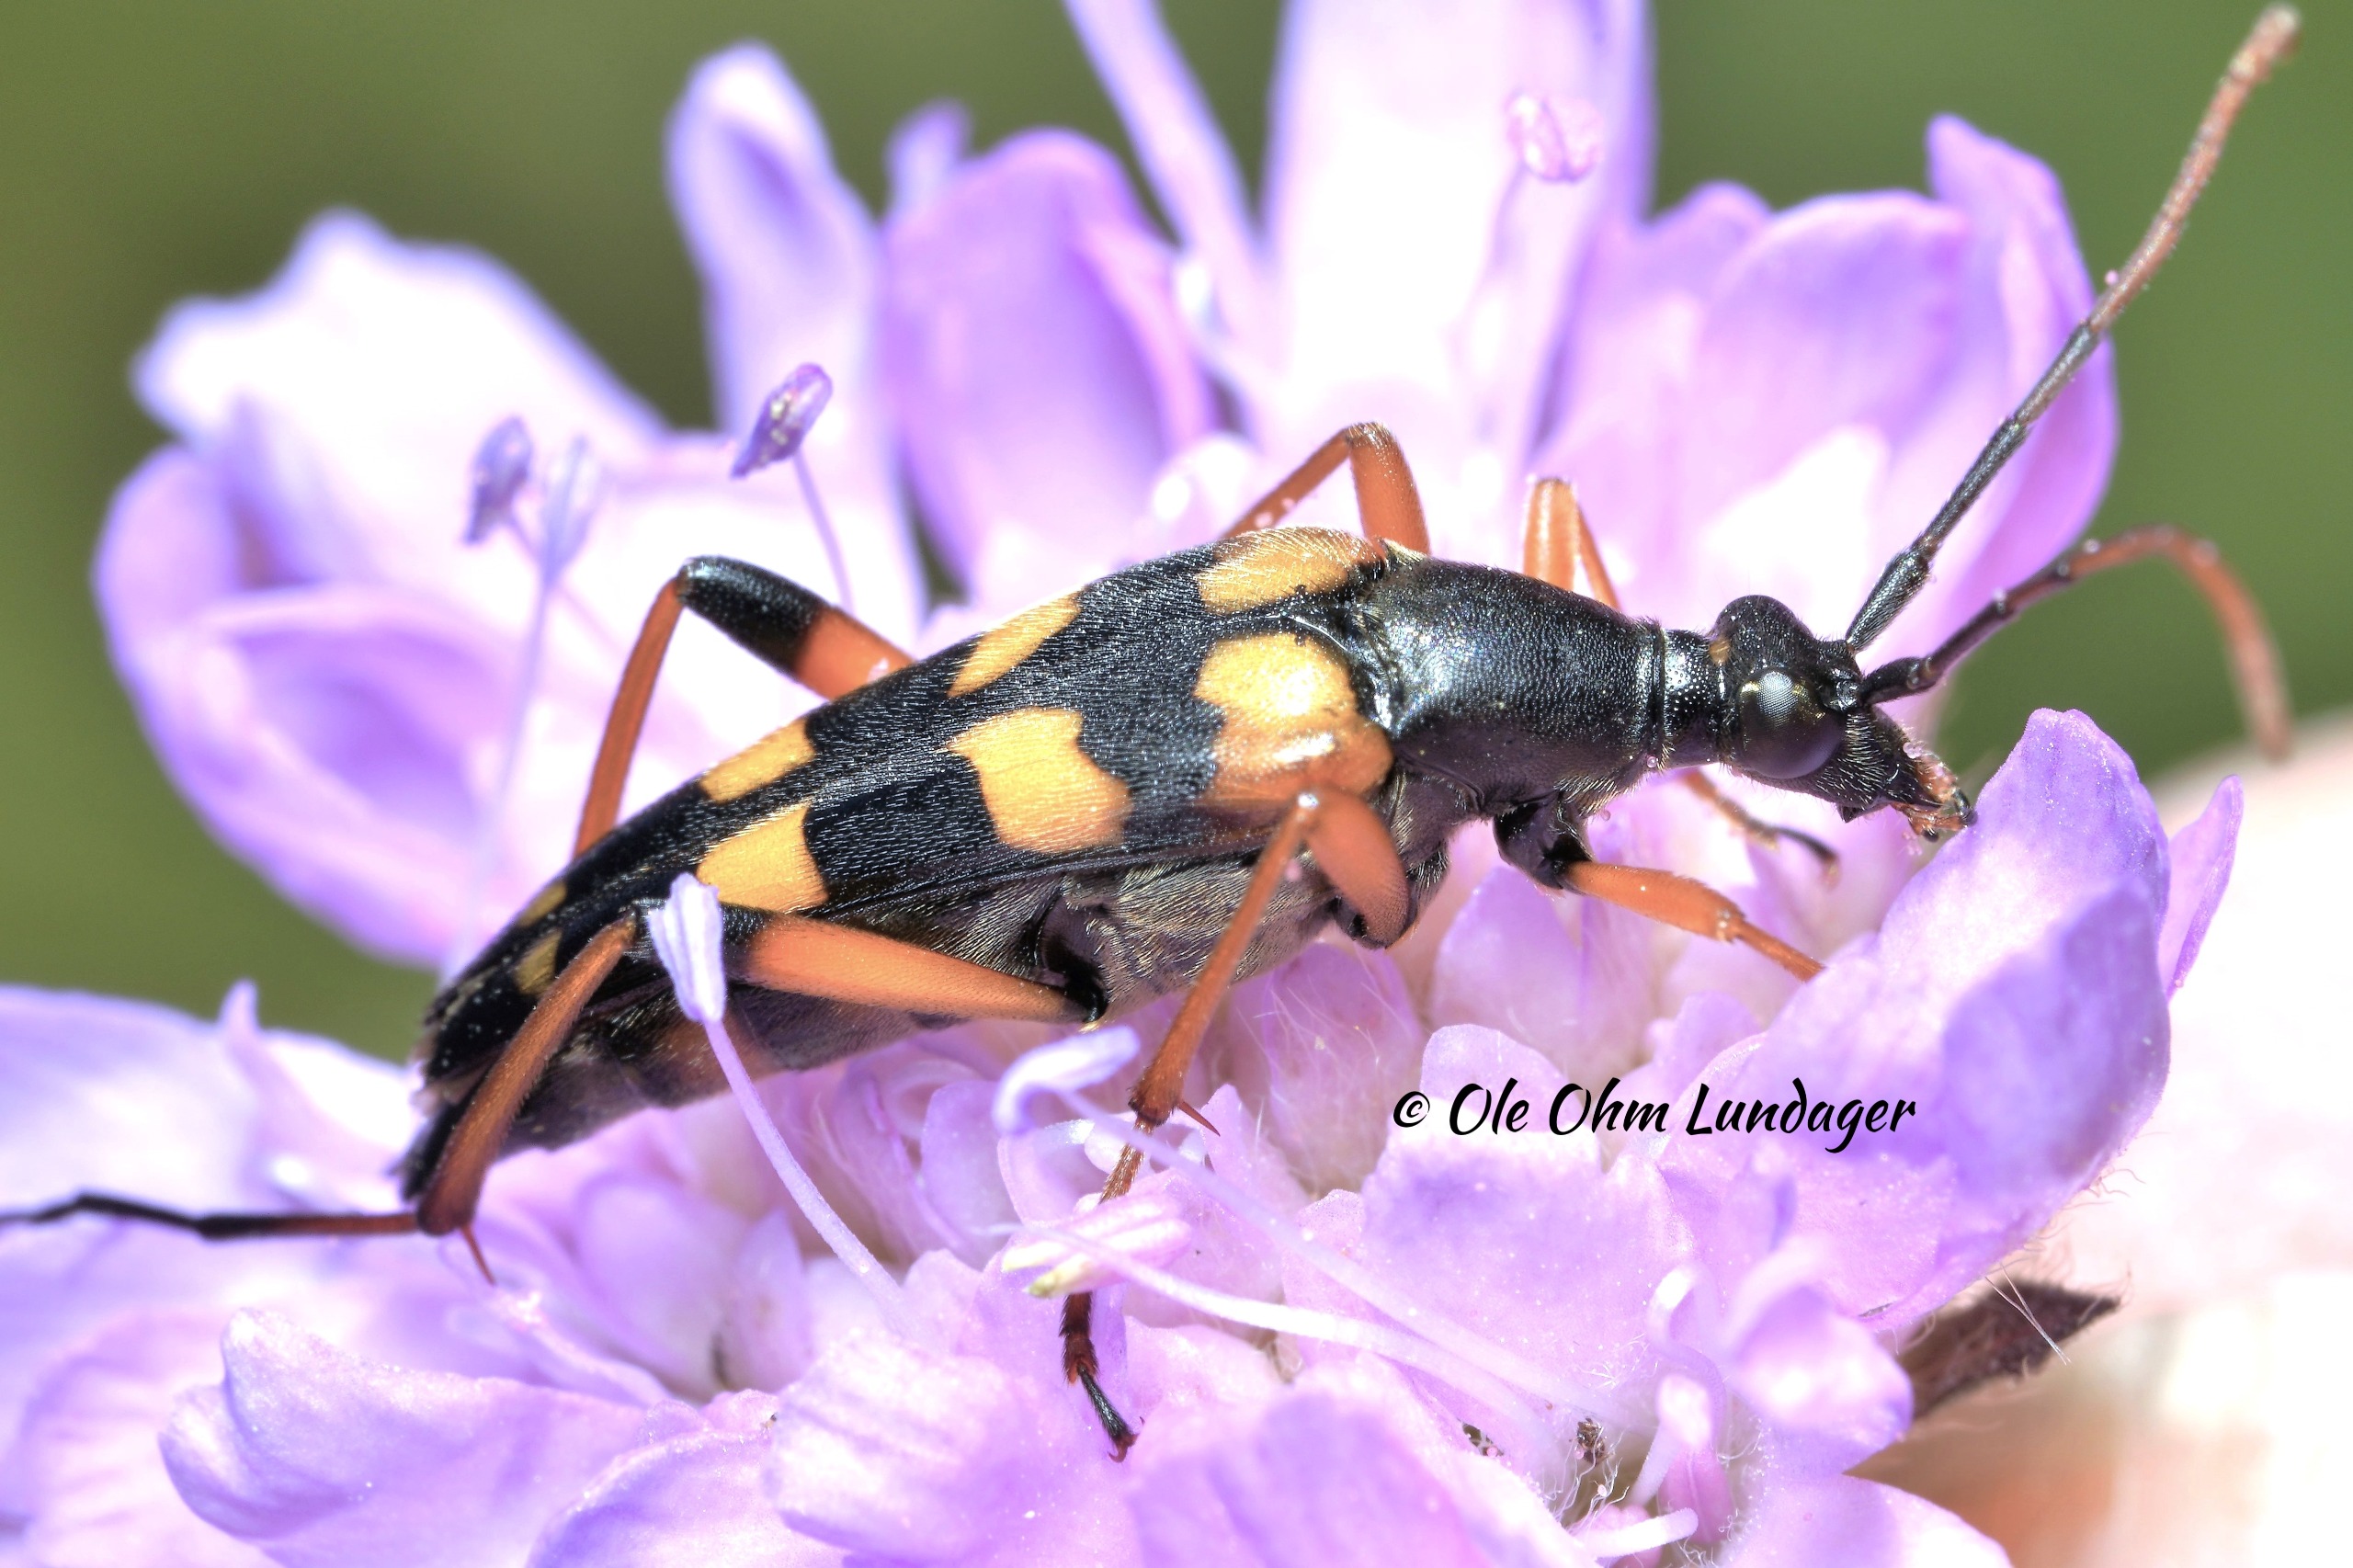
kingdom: Animalia
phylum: Arthropoda
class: Insecta
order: Coleoptera
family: Cerambycidae
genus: Strangalia
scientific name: Strangalia attenuata
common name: Smal blomsterbuk
